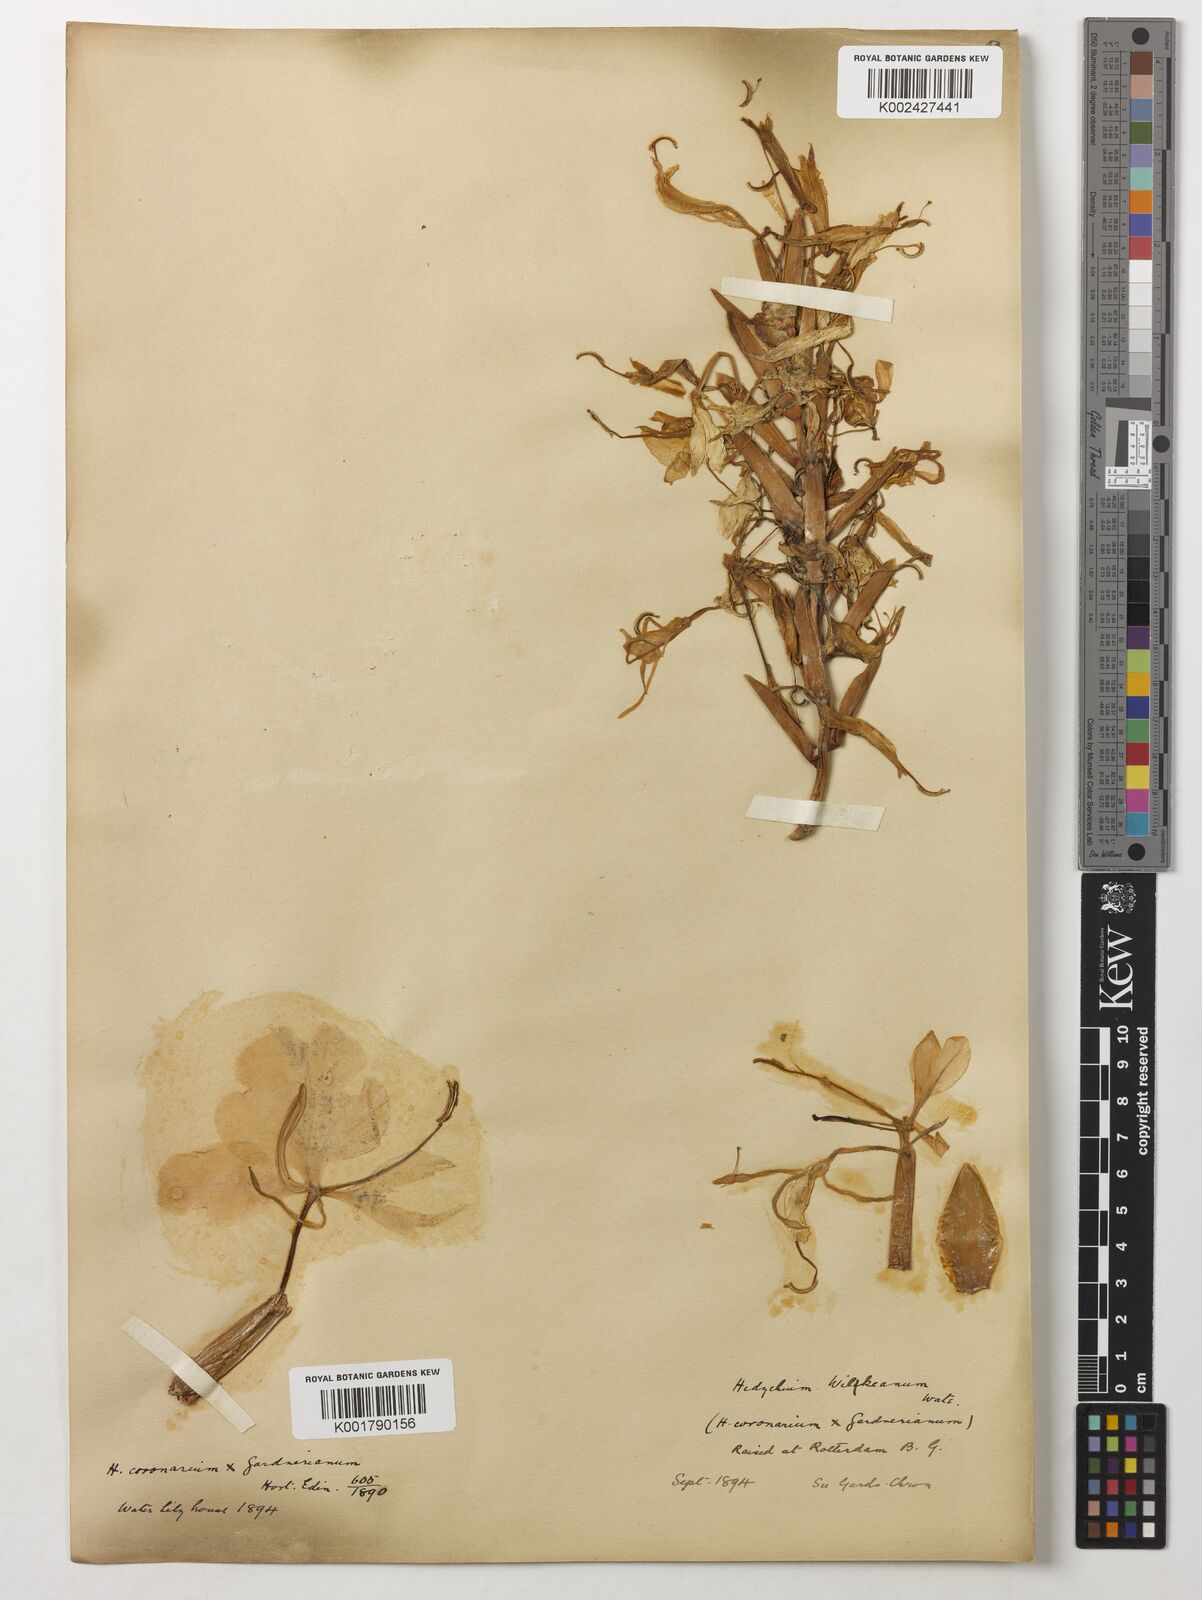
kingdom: Plantae
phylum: Tracheophyta
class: Liliopsida
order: Zingiberales
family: Zingiberaceae
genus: Hedychium
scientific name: Hedychium wilkeanum
